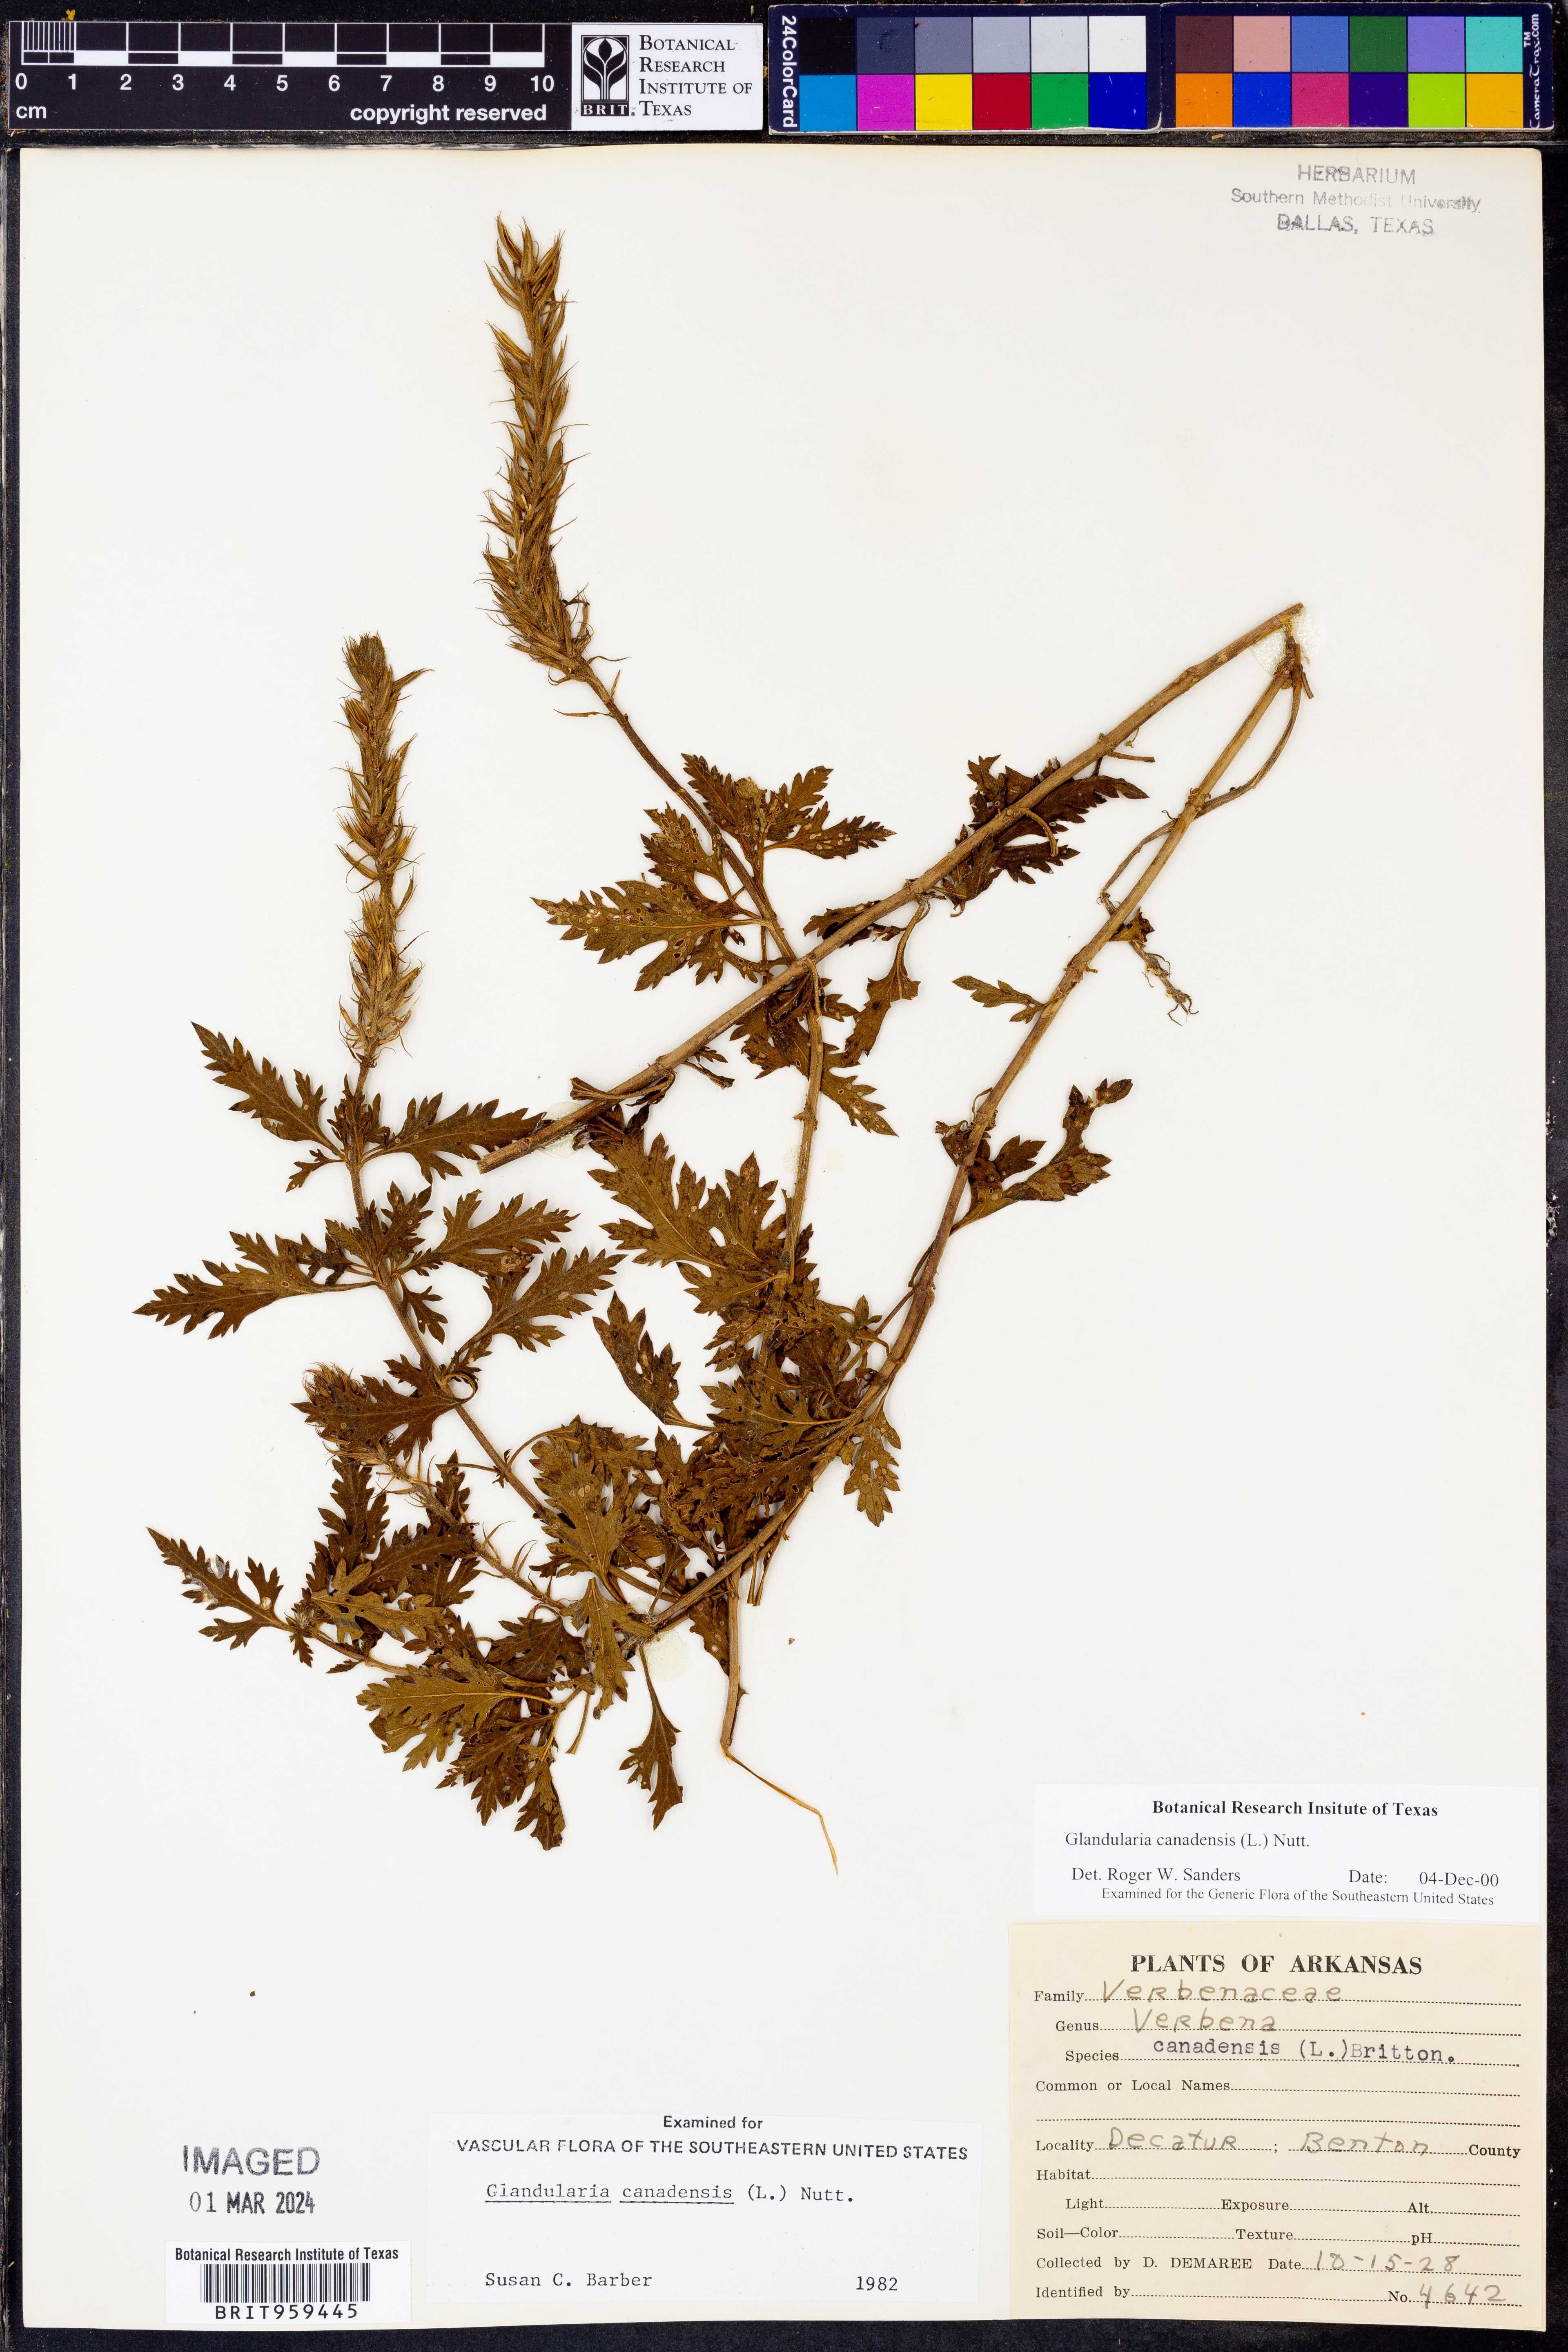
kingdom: Plantae
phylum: Tracheophyta
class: Magnoliopsida
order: Lamiales
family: Verbenaceae
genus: Verbena
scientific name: Verbena canadensis
